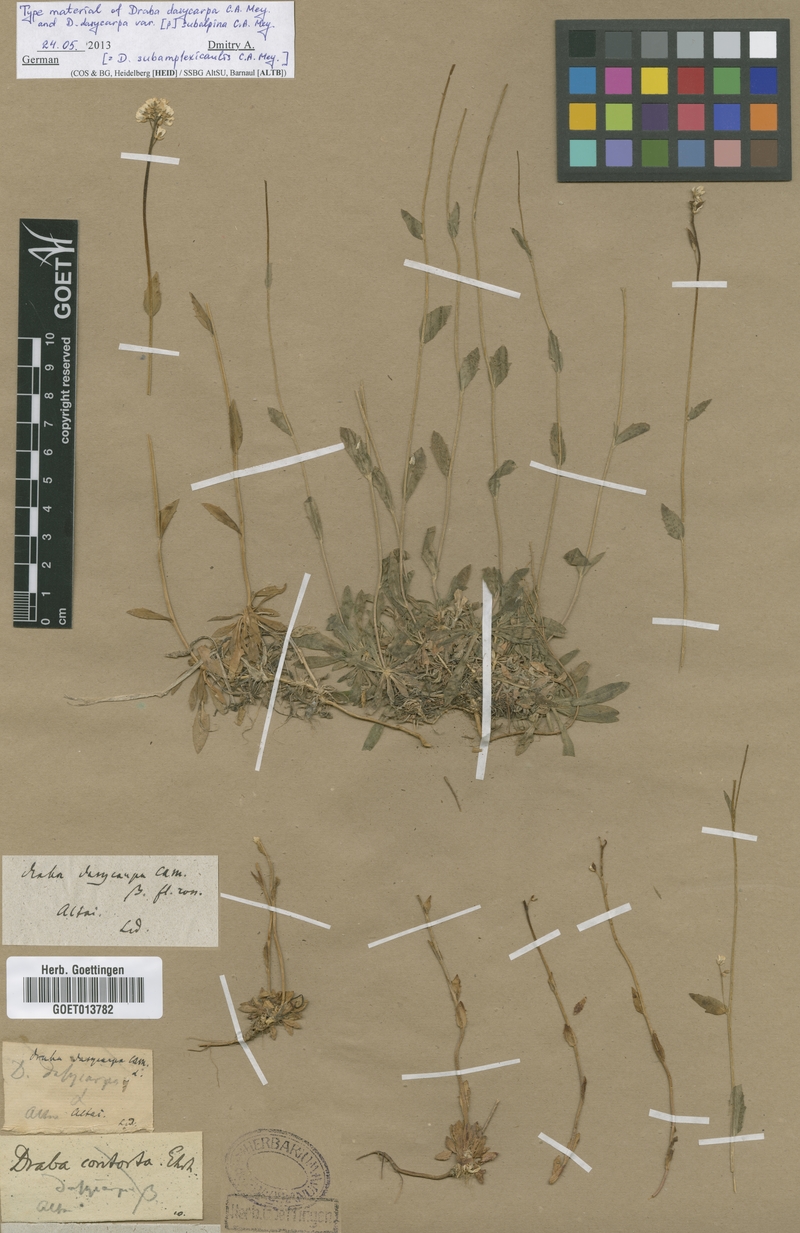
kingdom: Plantae
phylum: Tracheophyta
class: Magnoliopsida
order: Brassicales
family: Brassicaceae
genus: Draba
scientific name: Draba subamplexicaulis
